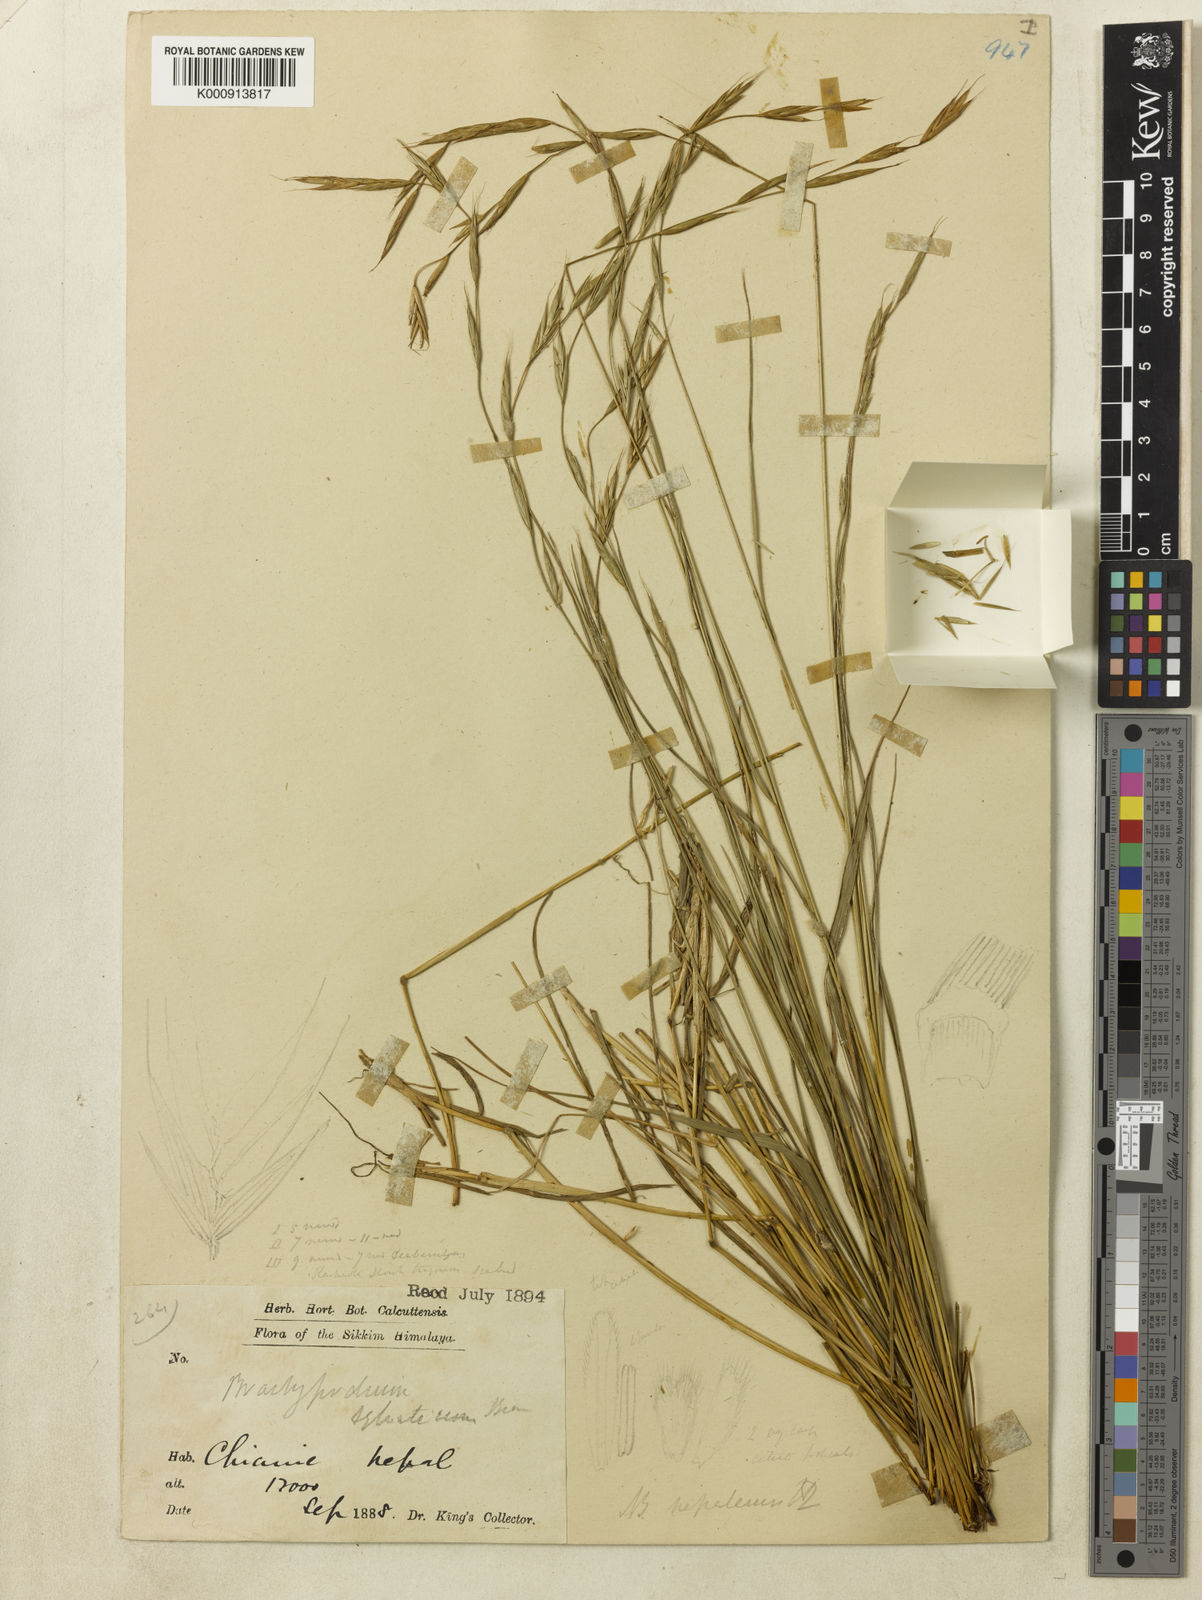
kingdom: Plantae
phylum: Tracheophyta
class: Liliopsida
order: Poales
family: Poaceae
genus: Brachypodium
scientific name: Brachypodium sylvaticum
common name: False-brome
